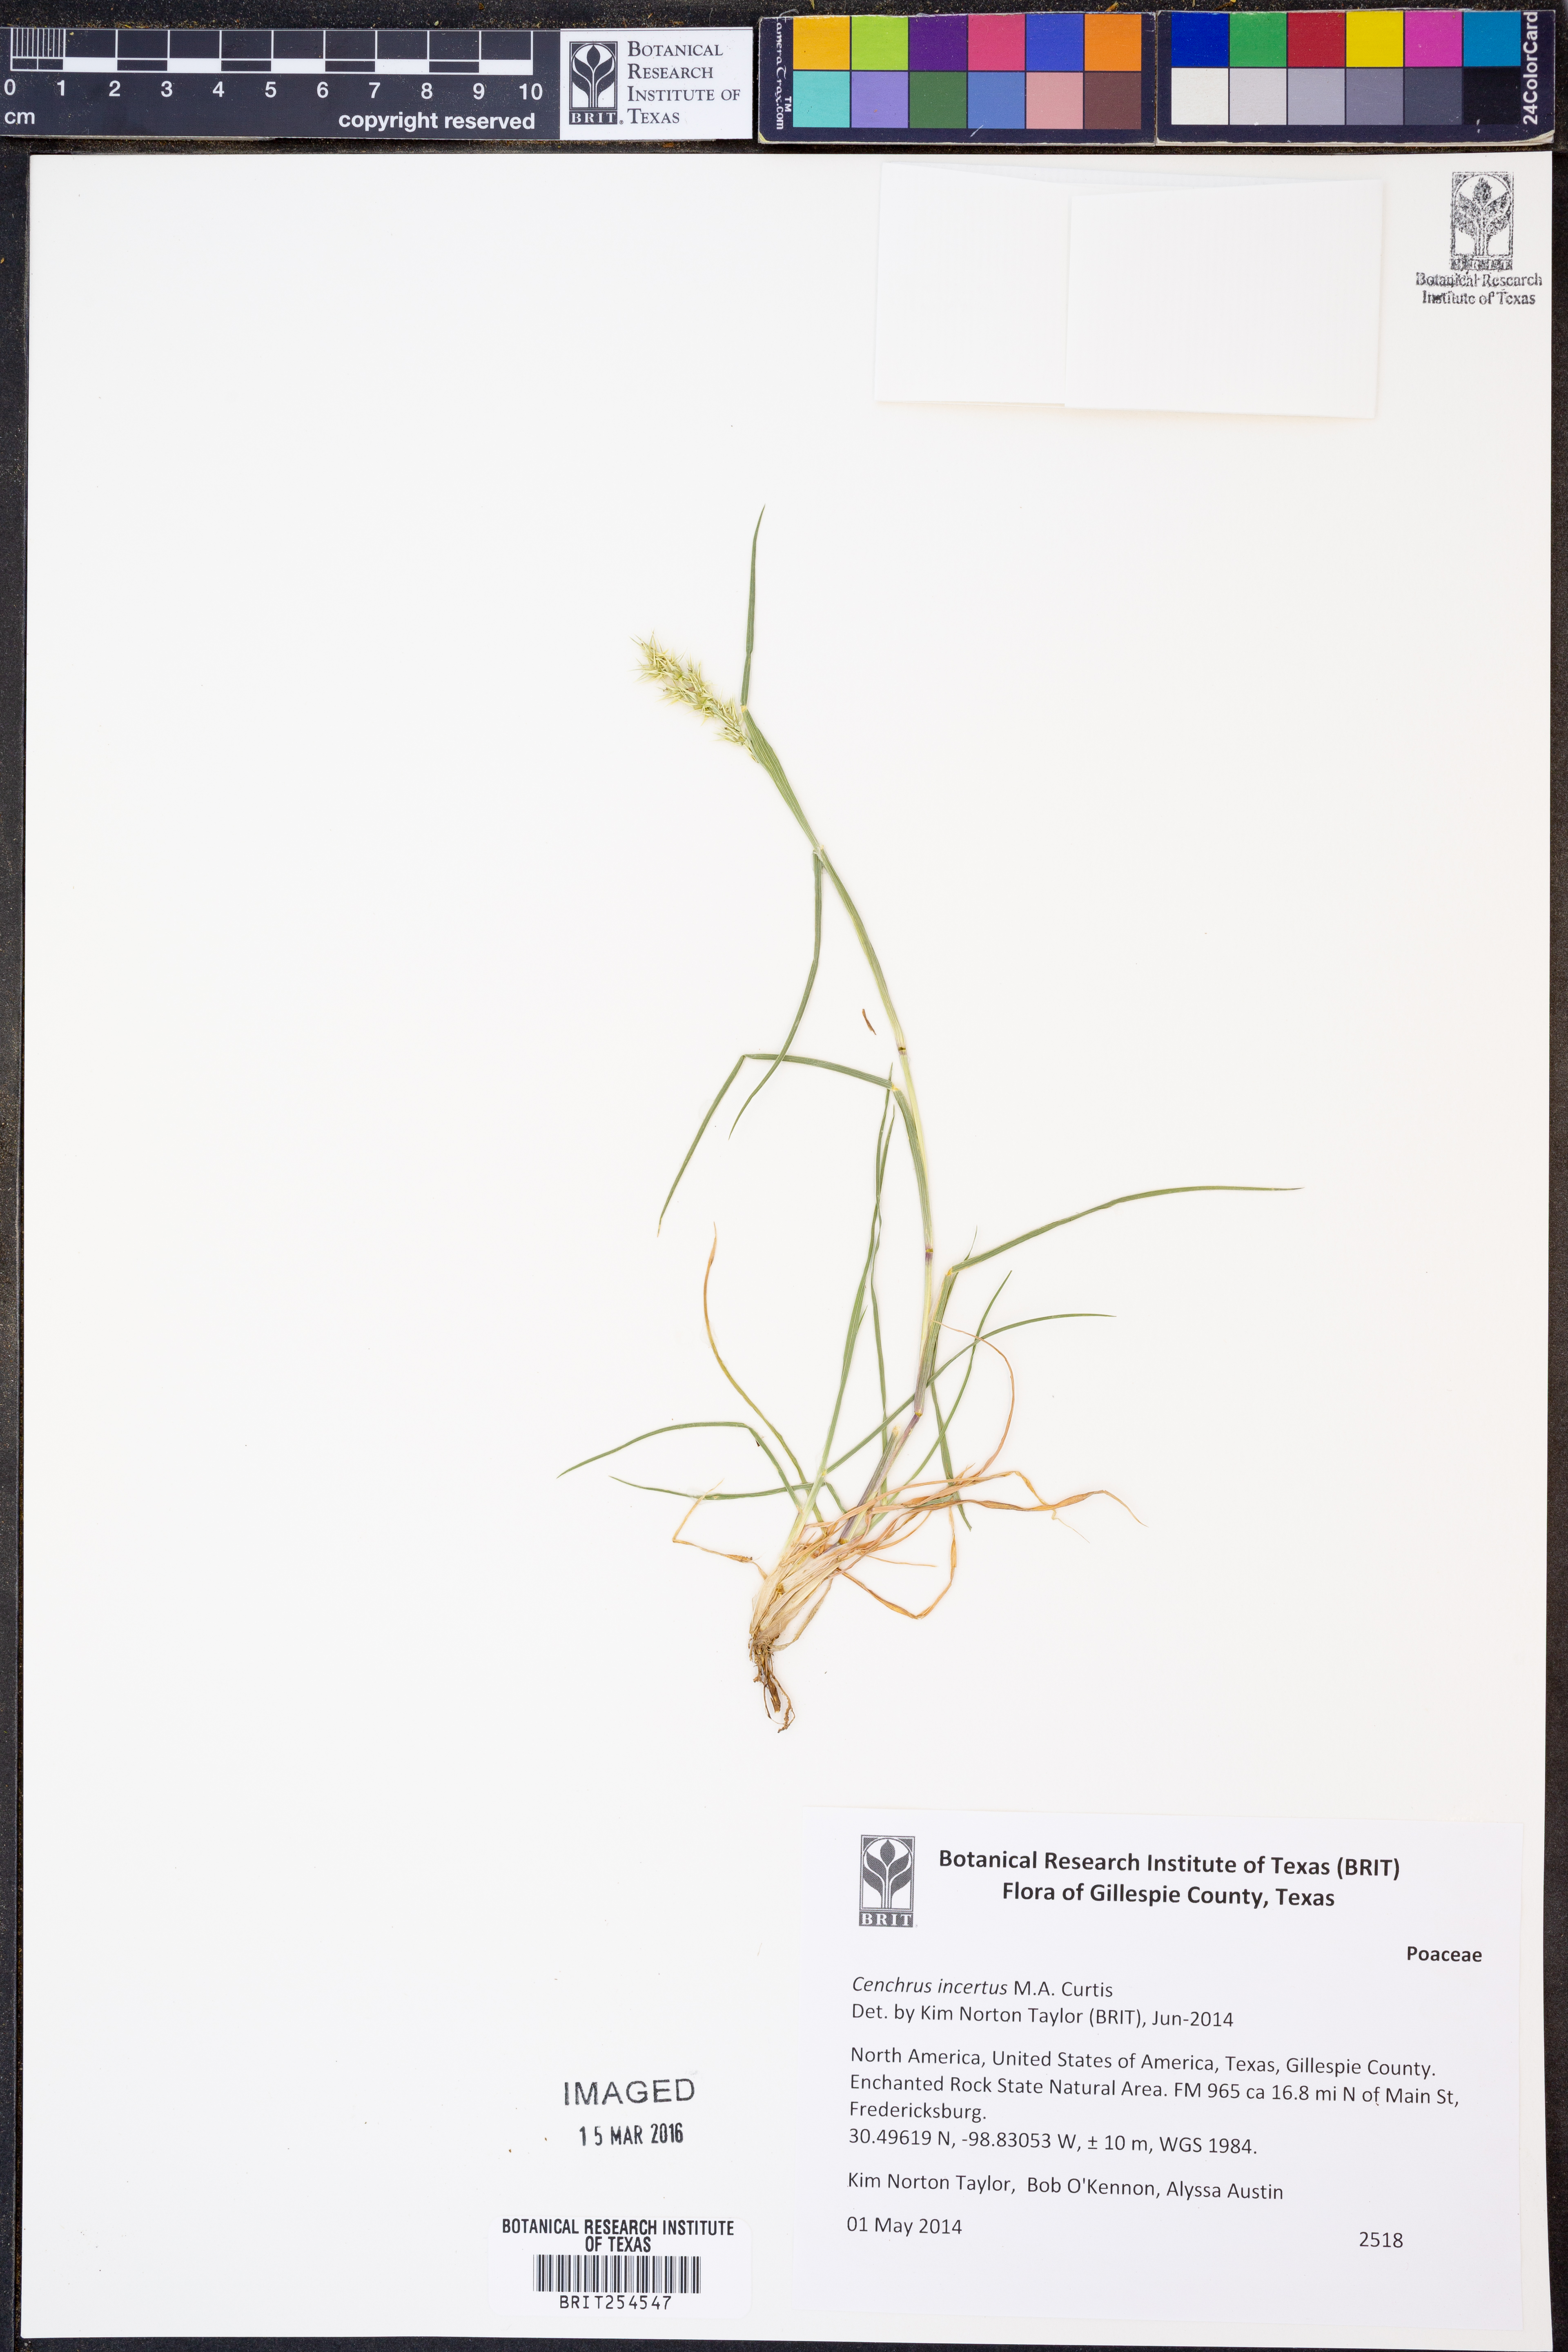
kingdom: Plantae
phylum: Tracheophyta
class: Liliopsida
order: Poales
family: Poaceae
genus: Cenchrus
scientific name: Cenchrus spinifex
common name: Coast sandbur
